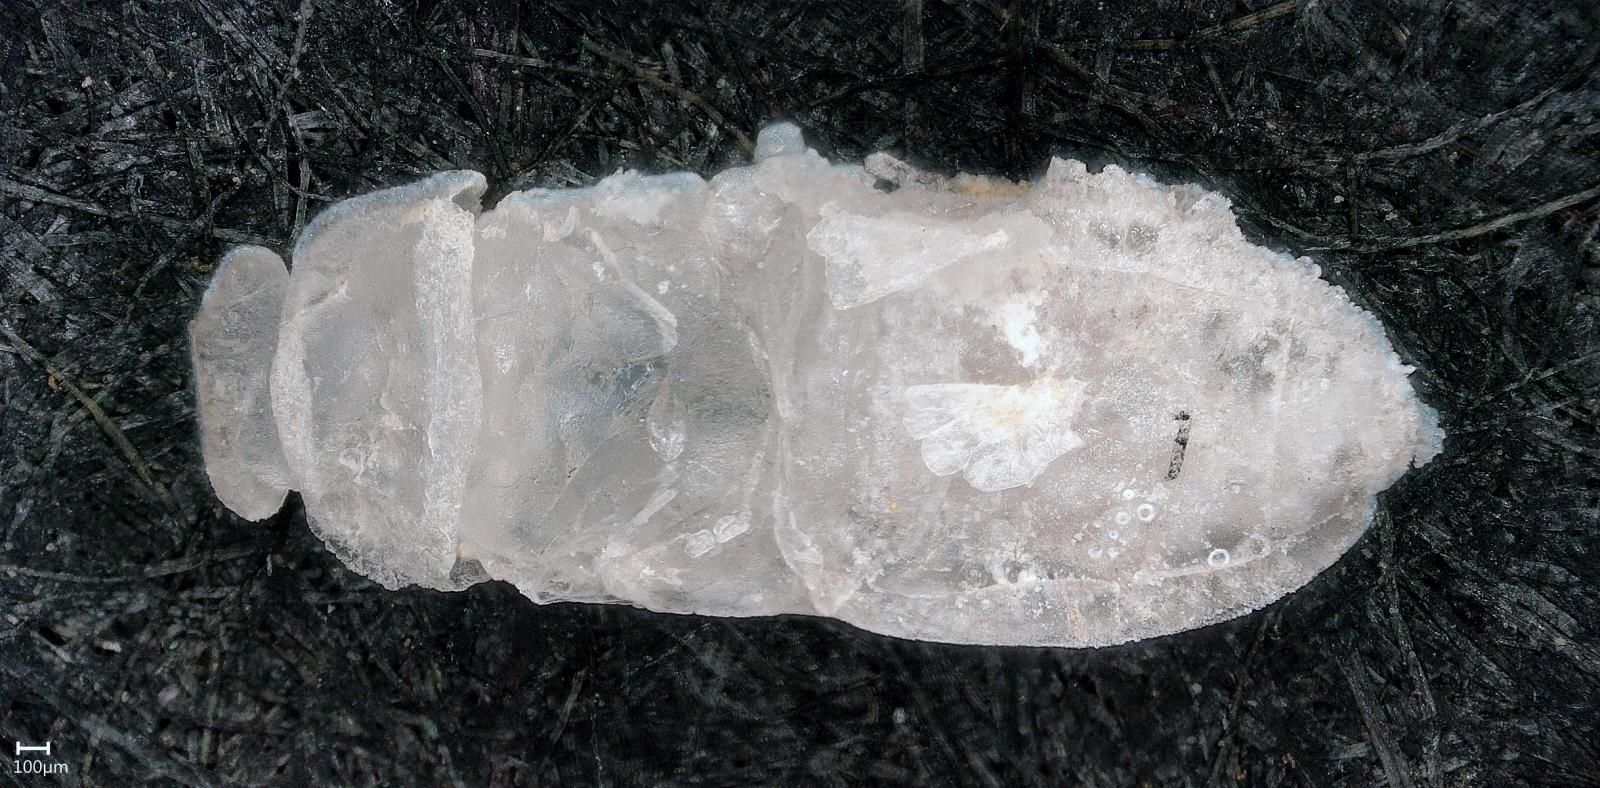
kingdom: Animalia
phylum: Arthropoda
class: Insecta
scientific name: Insecta
